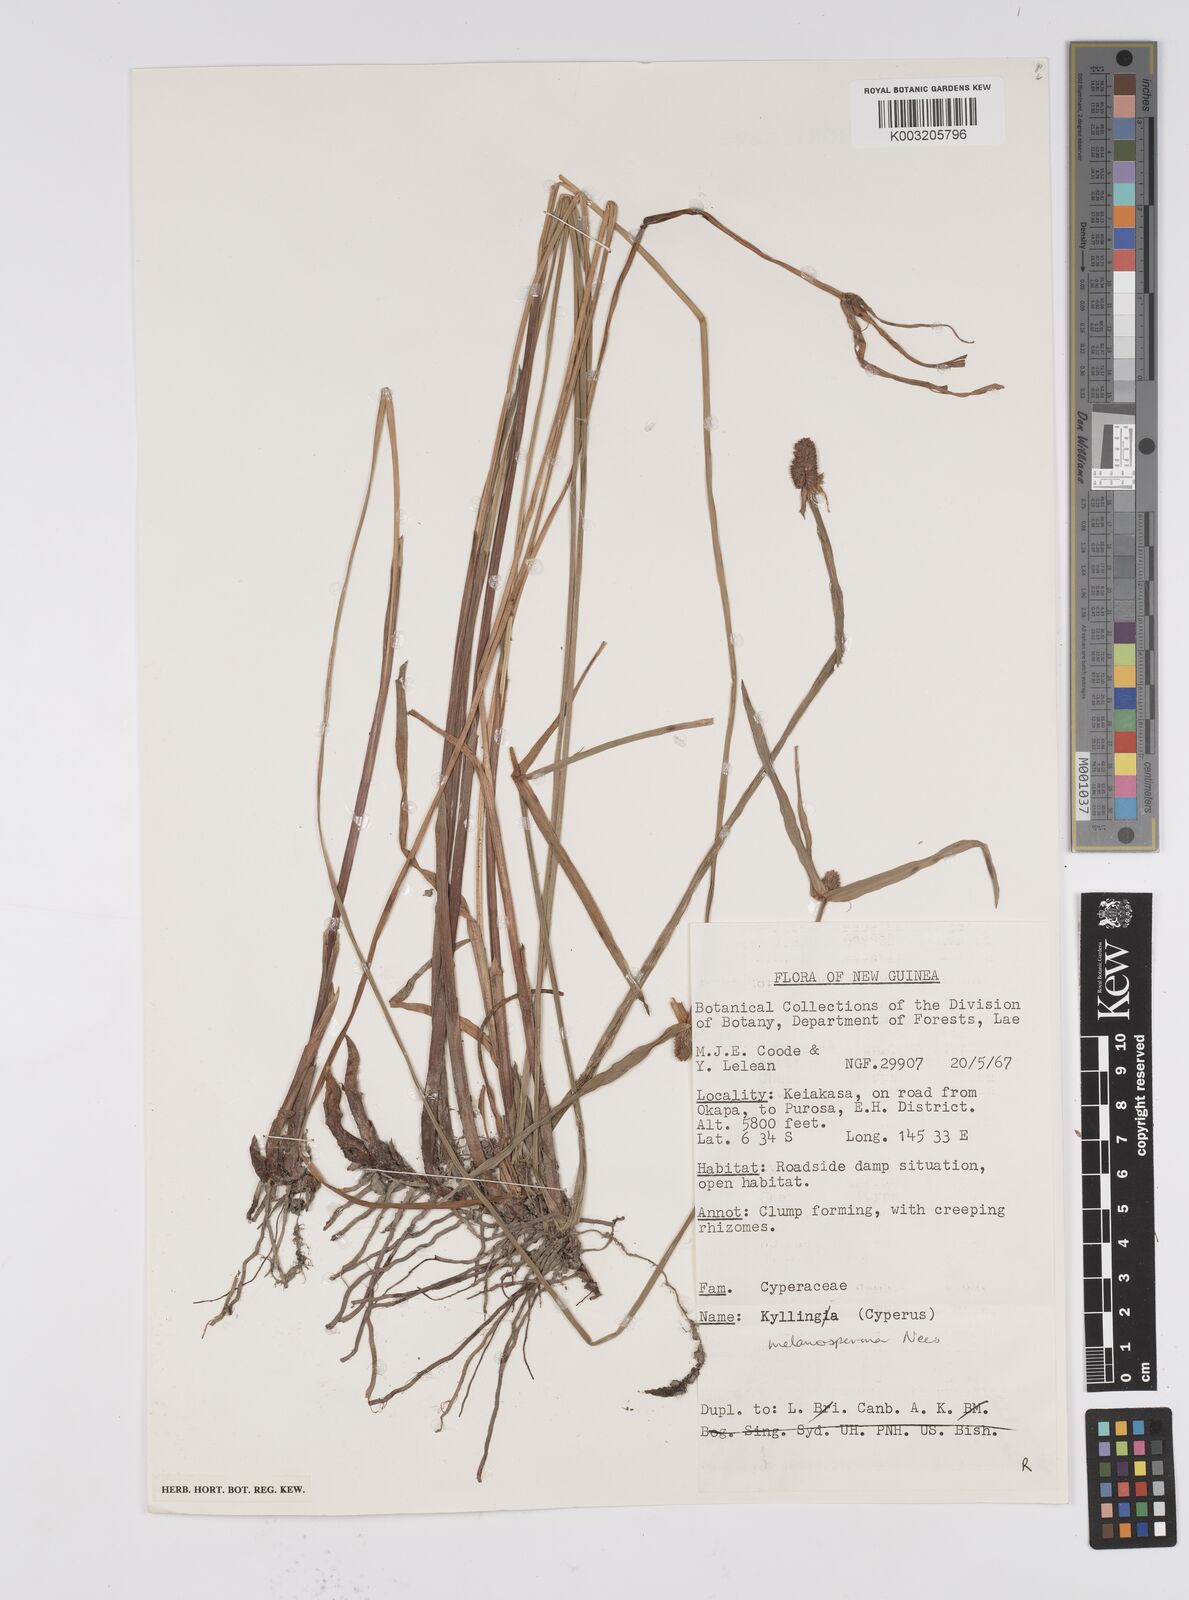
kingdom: Plantae
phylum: Tracheophyta
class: Liliopsida
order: Poales
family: Cyperaceae
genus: Cyperus
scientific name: Cyperus melanospermus
